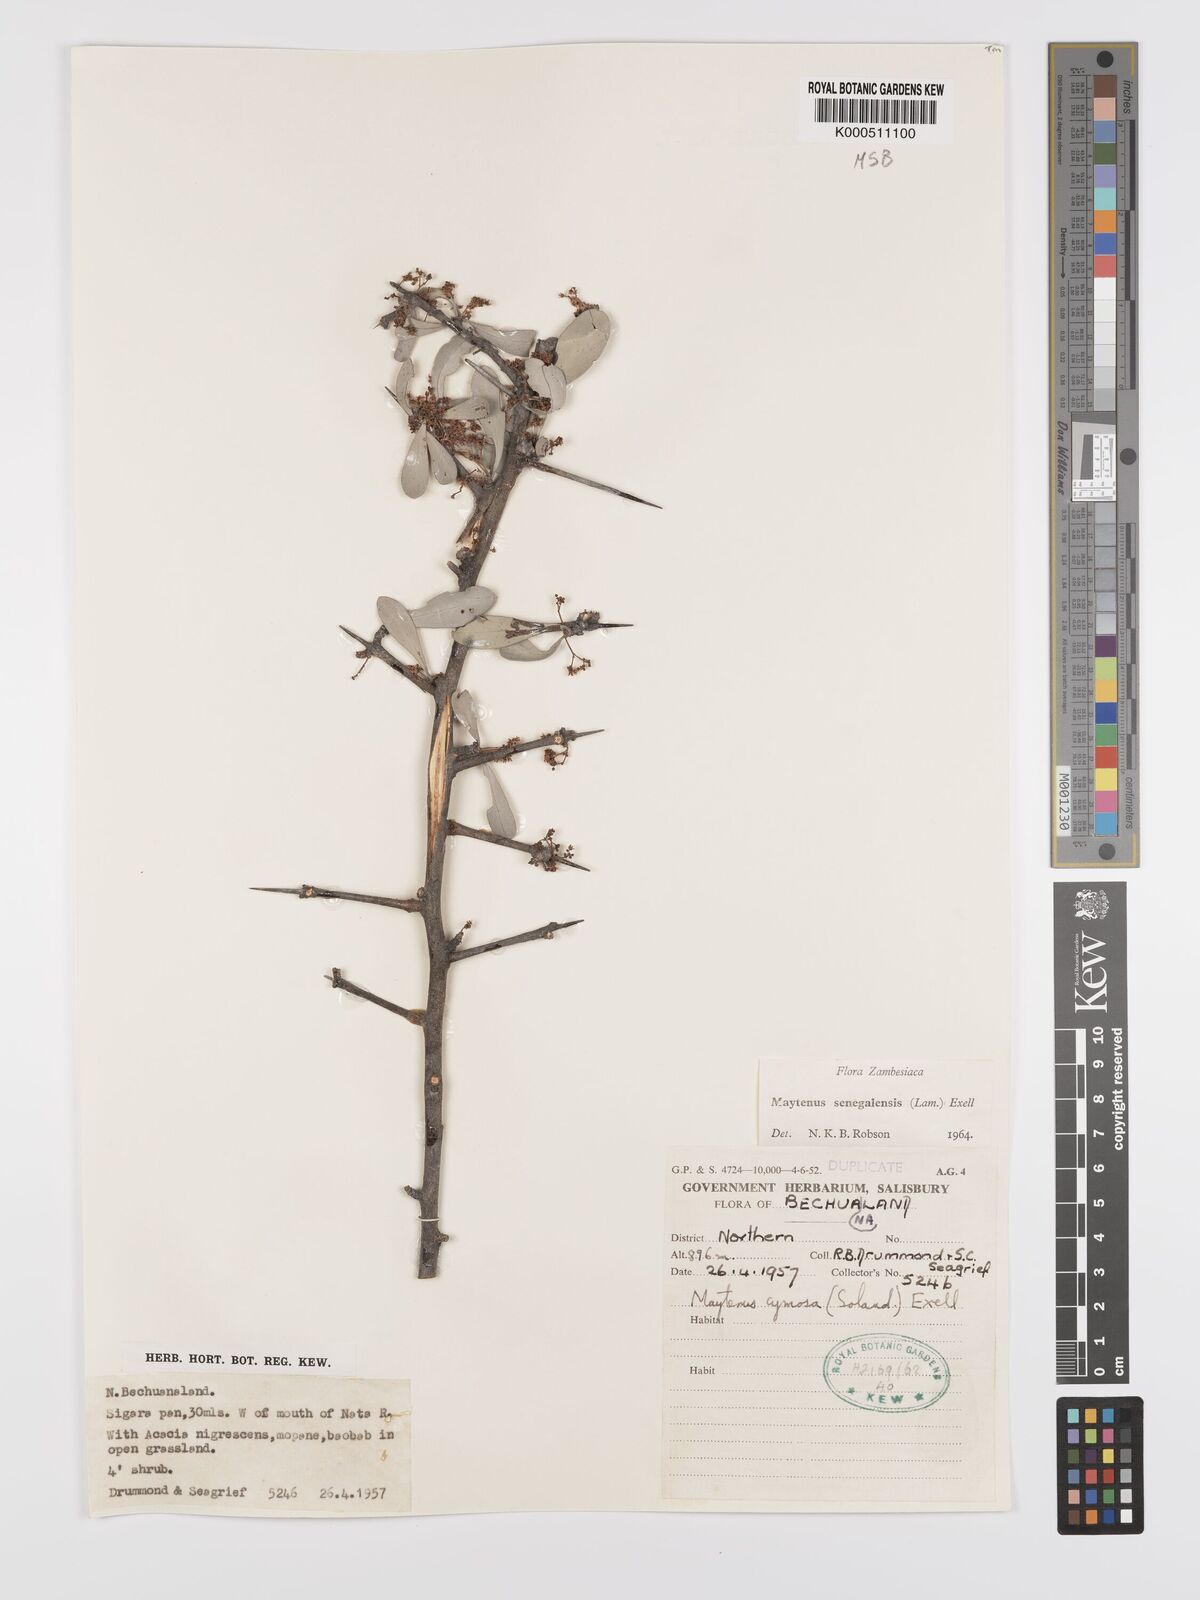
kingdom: Plantae
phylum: Tracheophyta
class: Magnoliopsida
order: Celastrales
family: Celastraceae
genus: Gymnosporia
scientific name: Gymnosporia senegalensis
